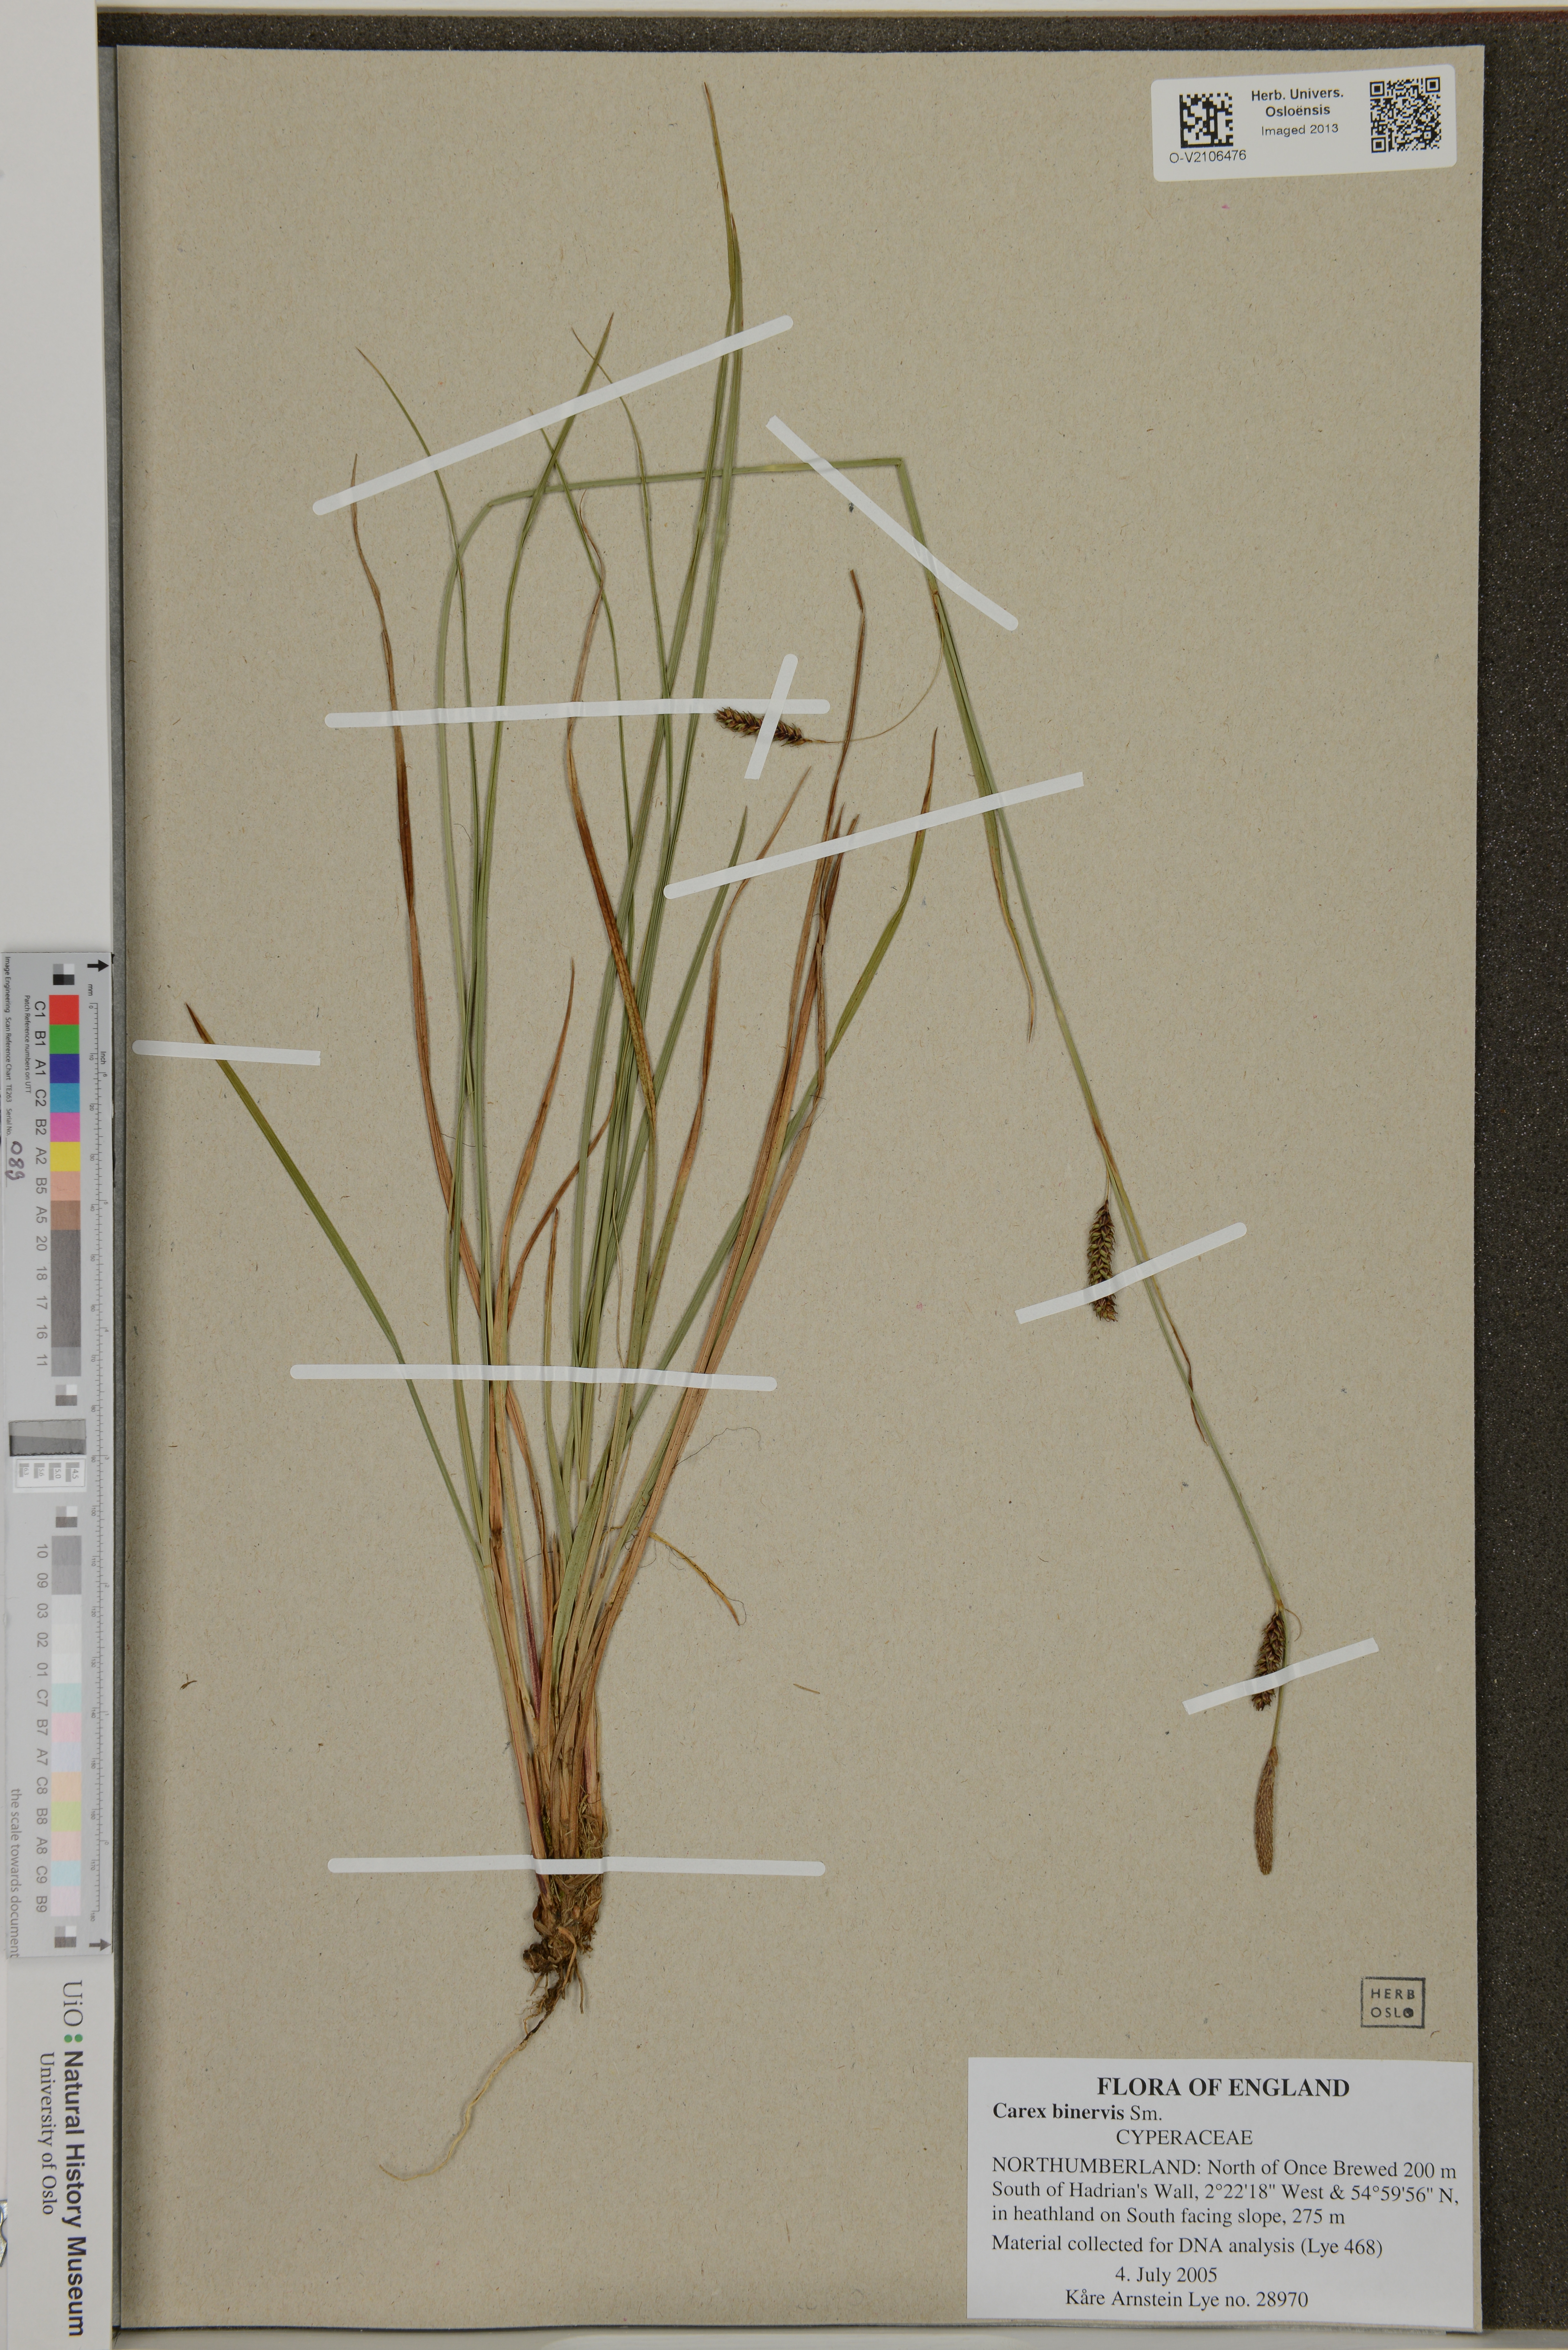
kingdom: Plantae
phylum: Tracheophyta
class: Liliopsida
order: Poales
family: Cyperaceae
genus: Carex
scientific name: Carex binervis
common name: Green-ribbed sedge
